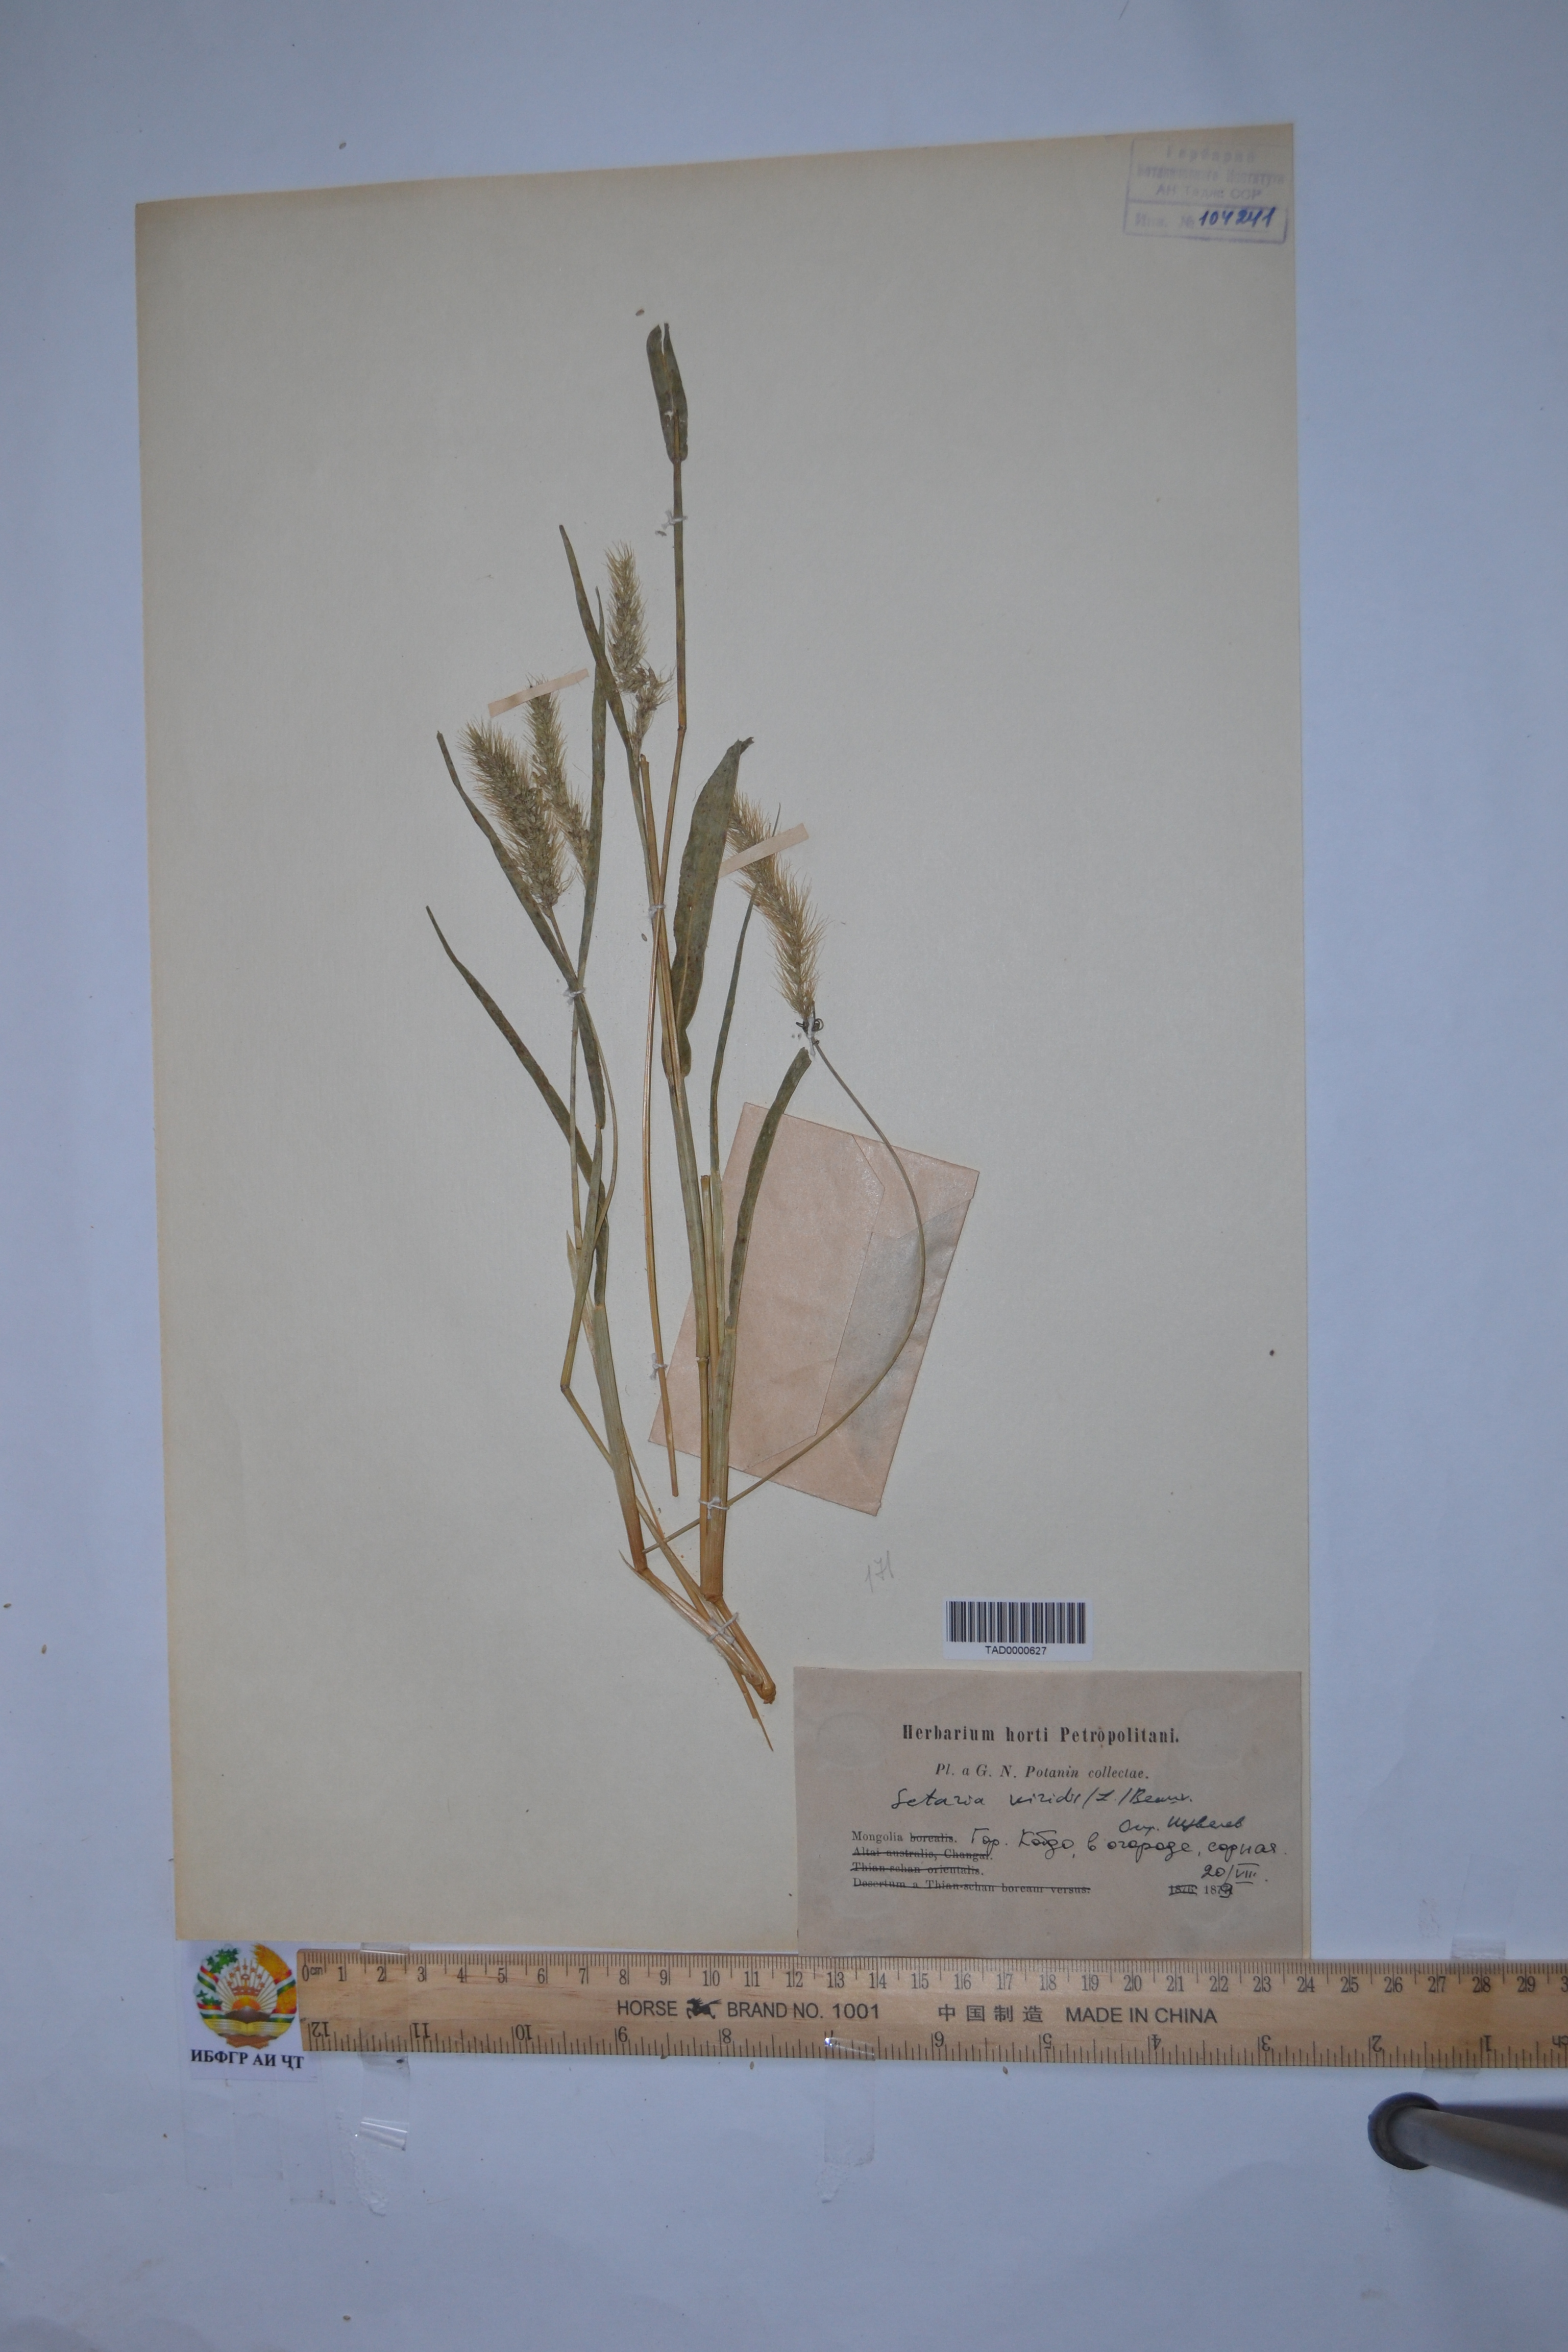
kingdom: Plantae
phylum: Tracheophyta
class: Liliopsida
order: Poales
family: Poaceae
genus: Setaria
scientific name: Setaria viridis
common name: Green bristlegrass
